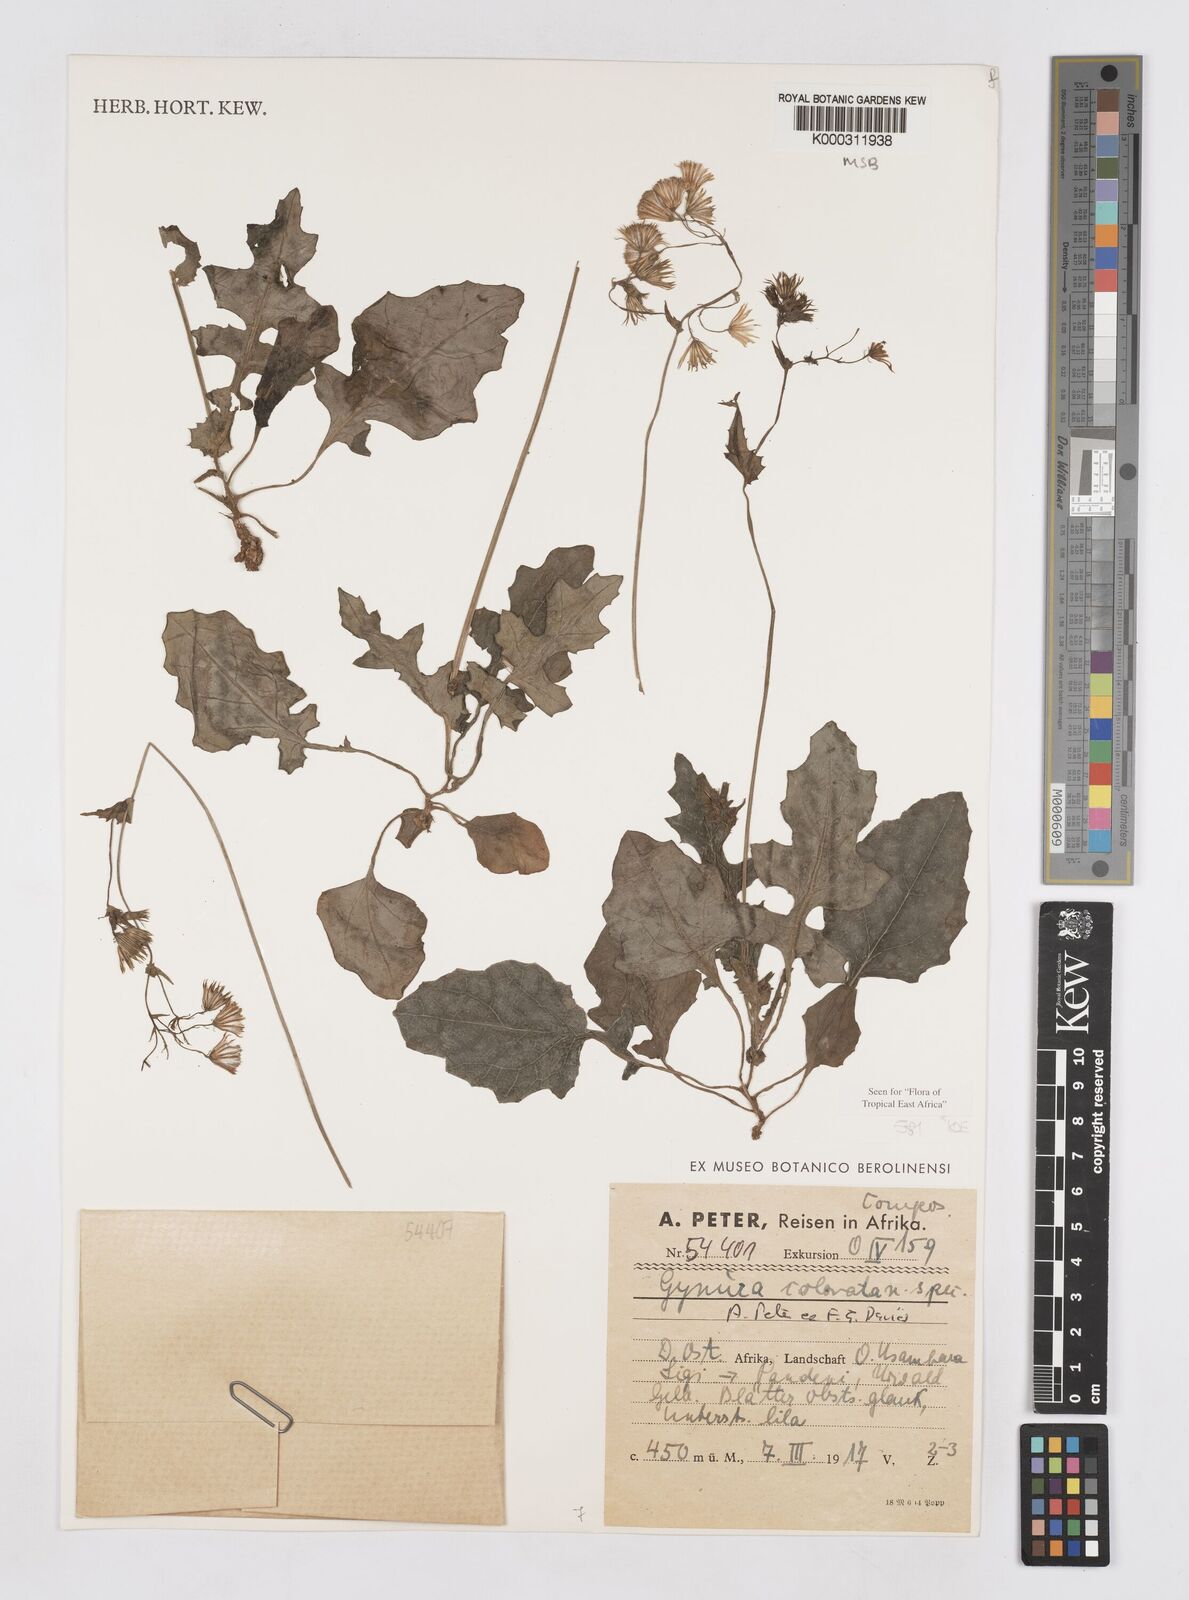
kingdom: Plantae
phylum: Tracheophyta
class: Magnoliopsida
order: Asterales
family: Asteraceae
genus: Gynura
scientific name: Gynura colorata
